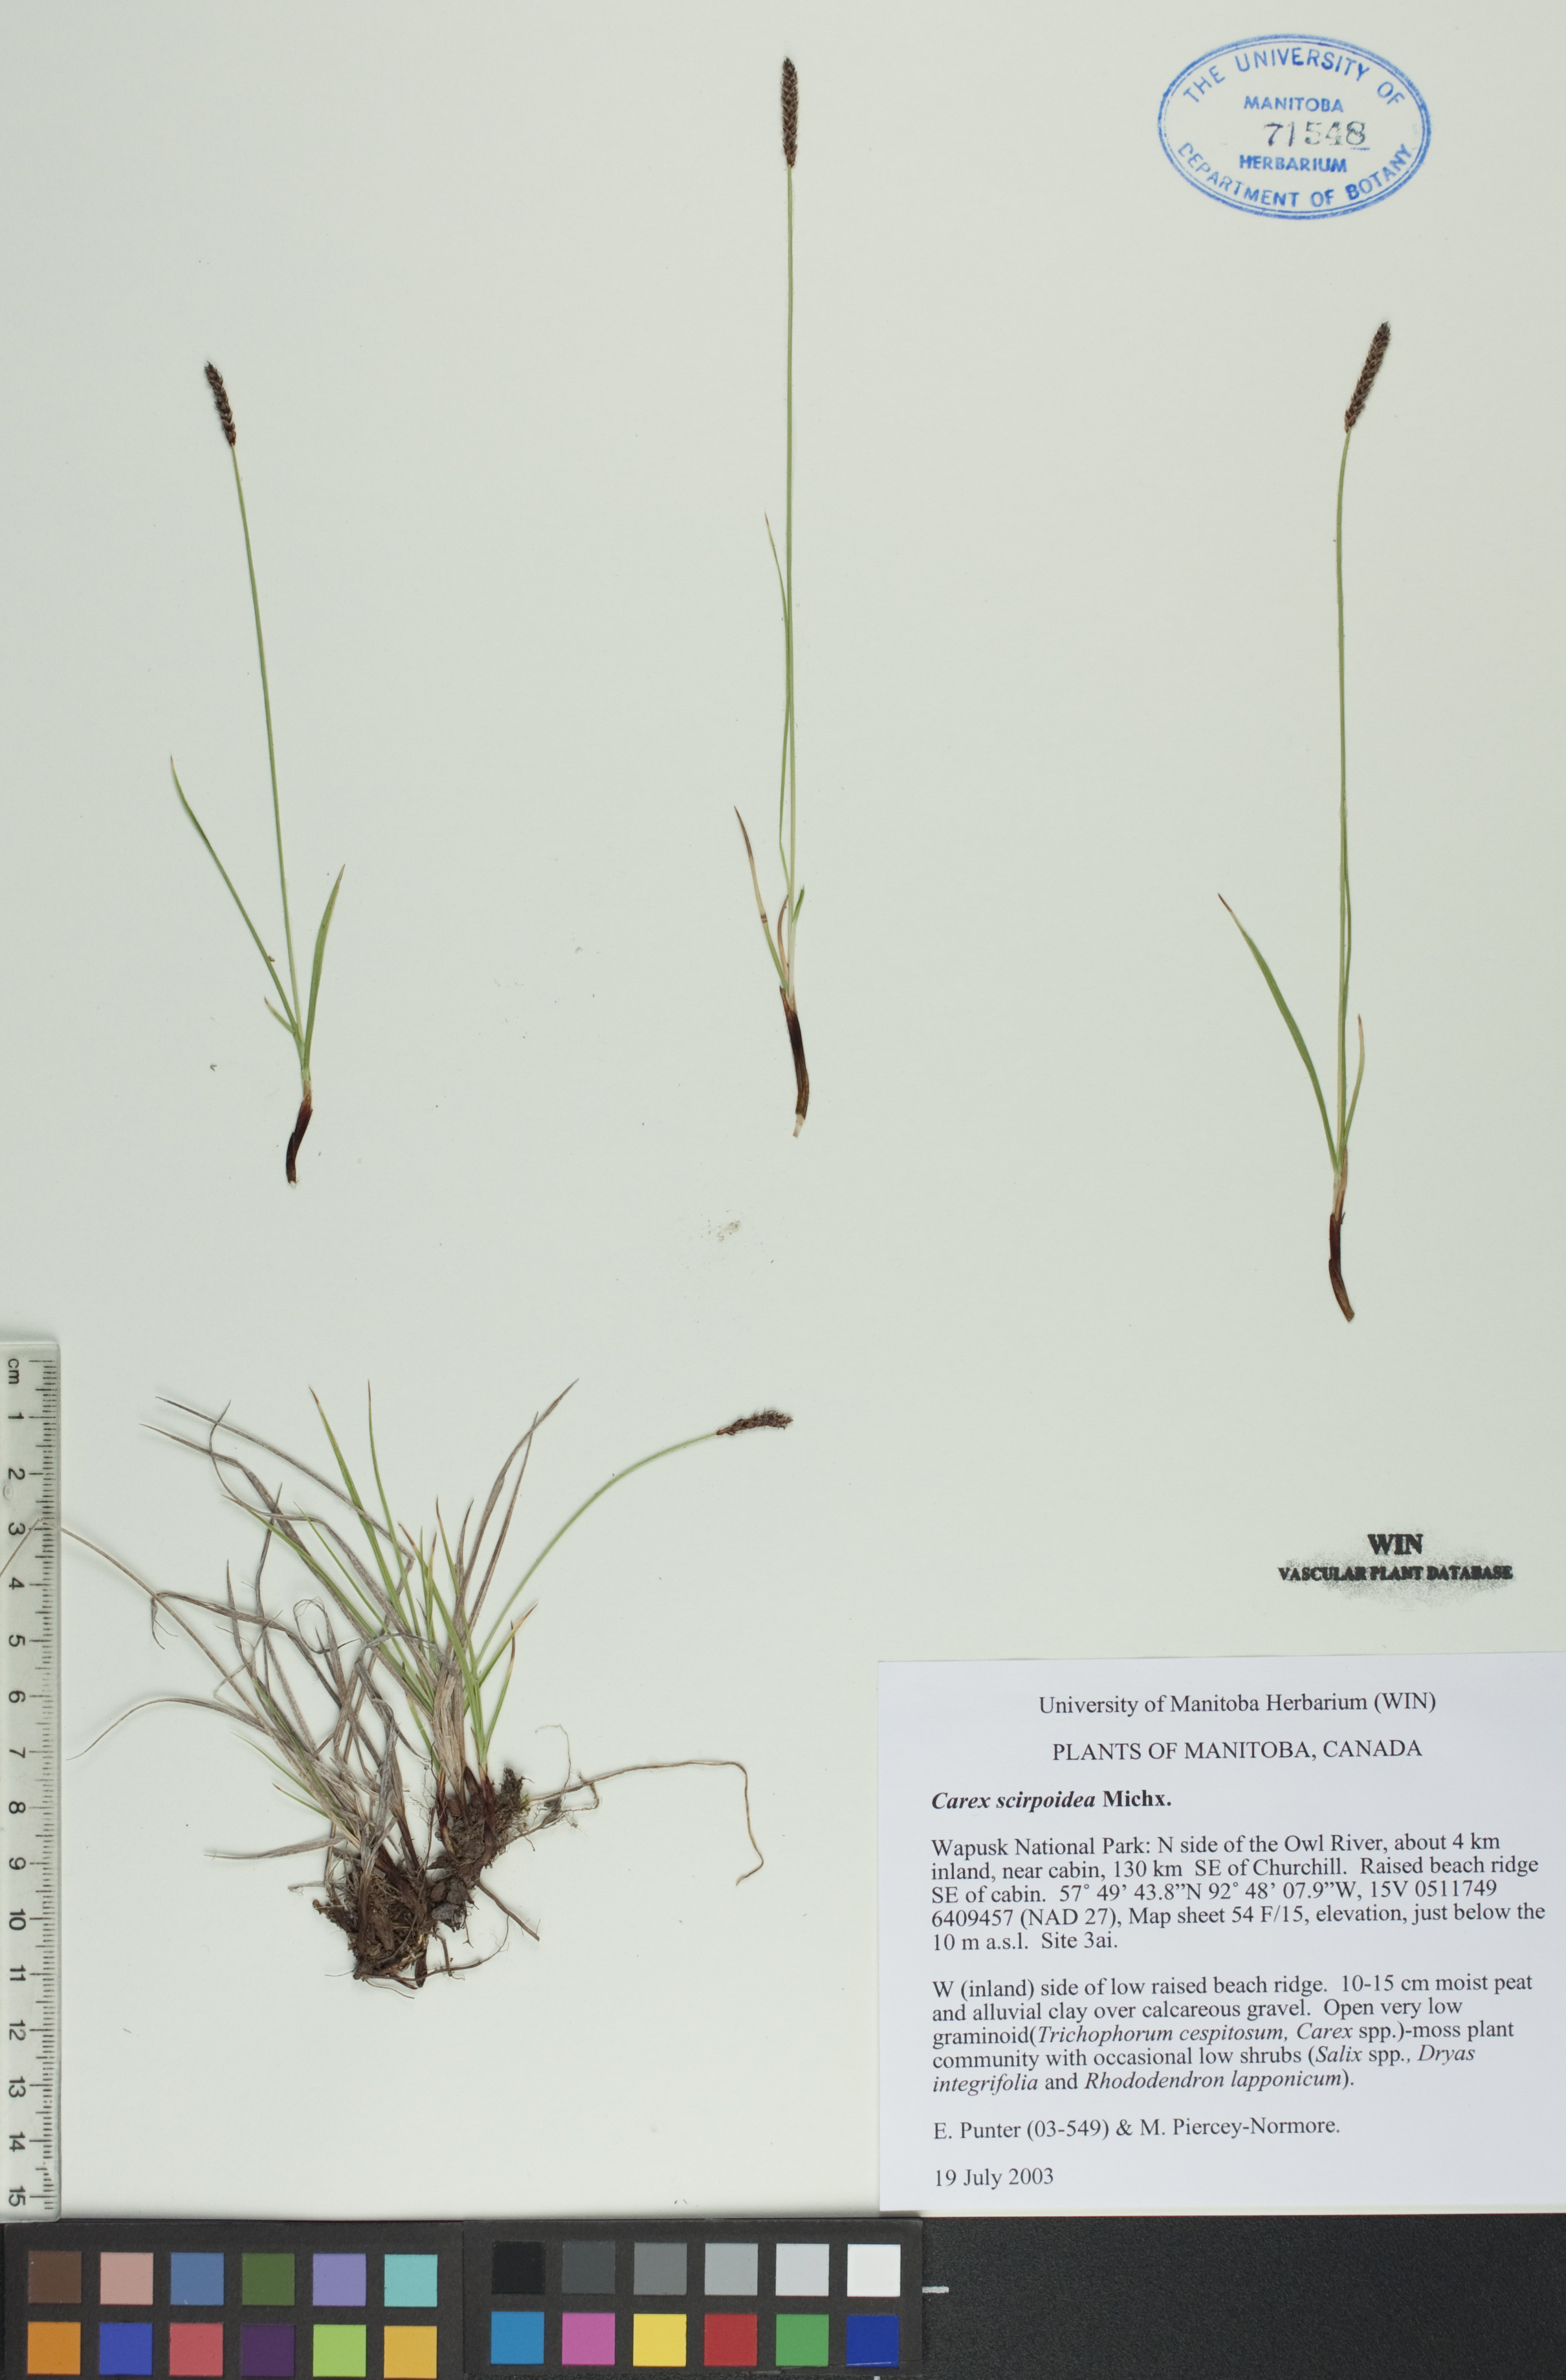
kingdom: Plantae
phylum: Tracheophyta
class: Liliopsida
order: Poales
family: Cyperaceae
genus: Carex
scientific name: Carex scirpoidea
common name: Canada single-spike sedge
